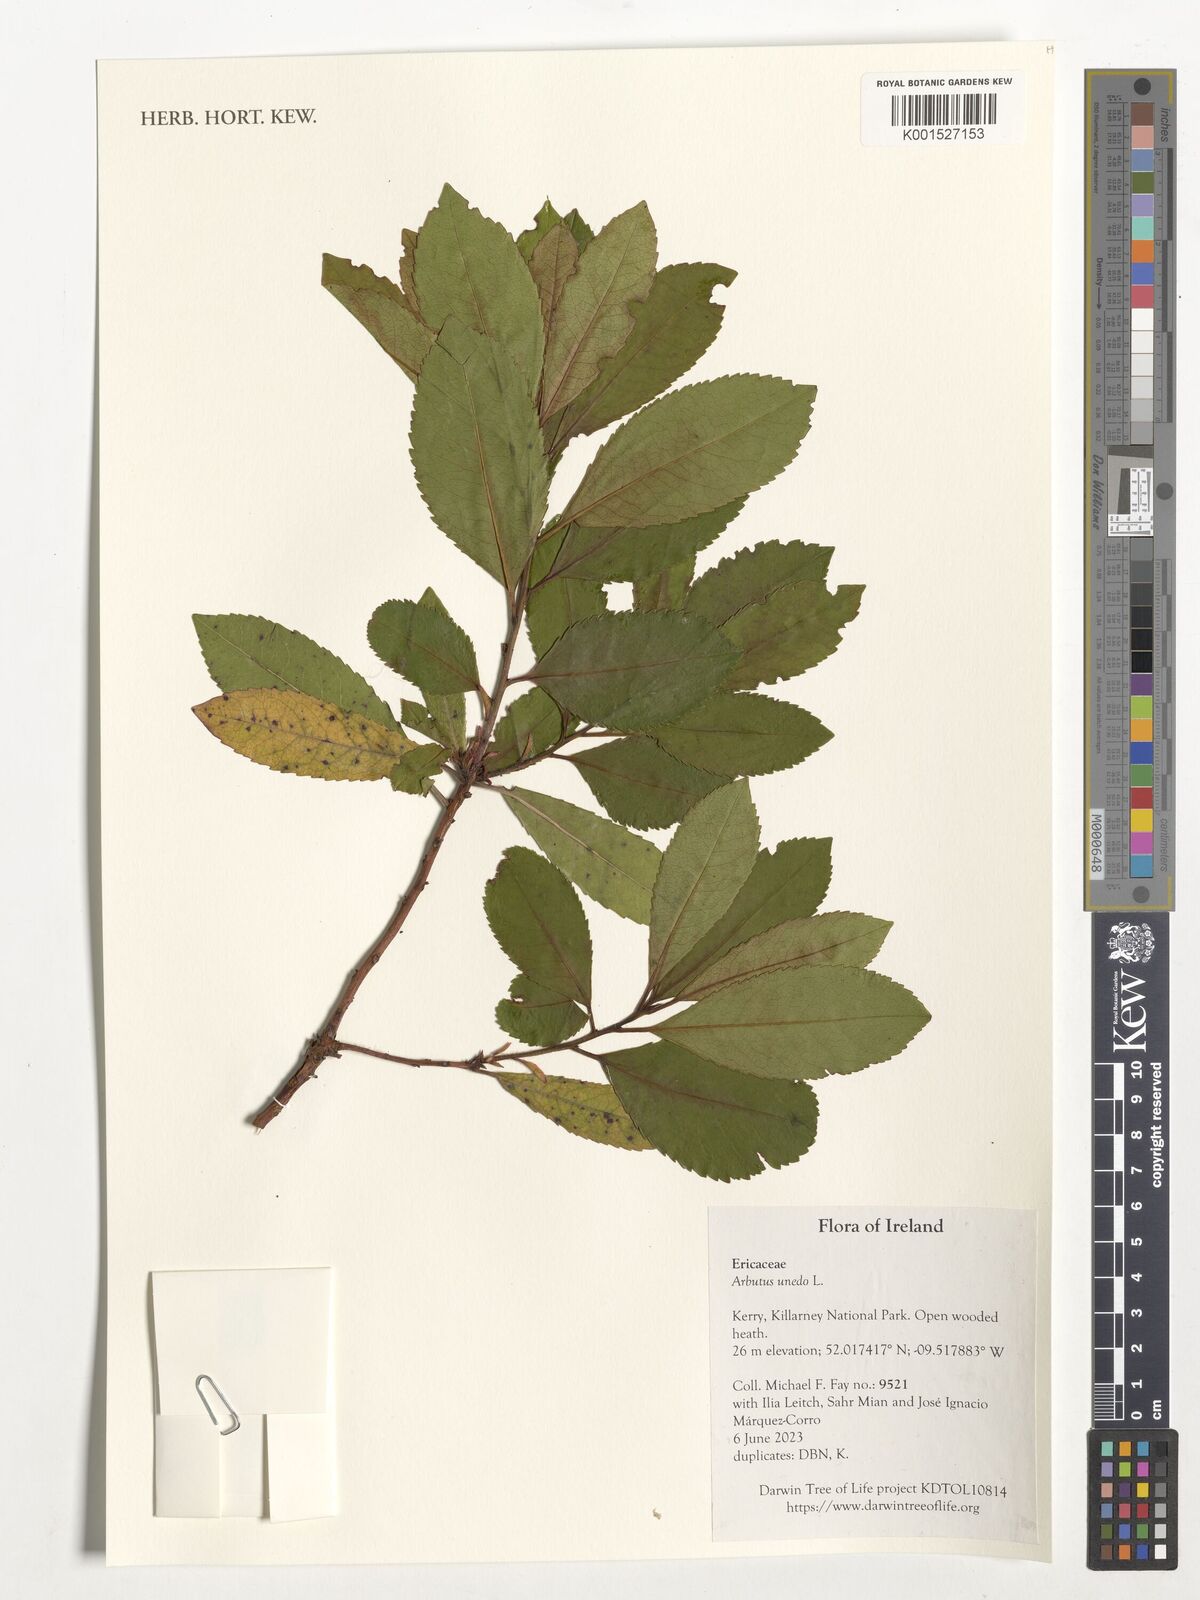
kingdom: Plantae
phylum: Tracheophyta
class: Magnoliopsida
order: Ericales
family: Ericaceae
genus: Arbutus
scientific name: Arbutus unedo
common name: Strawberry-tree
